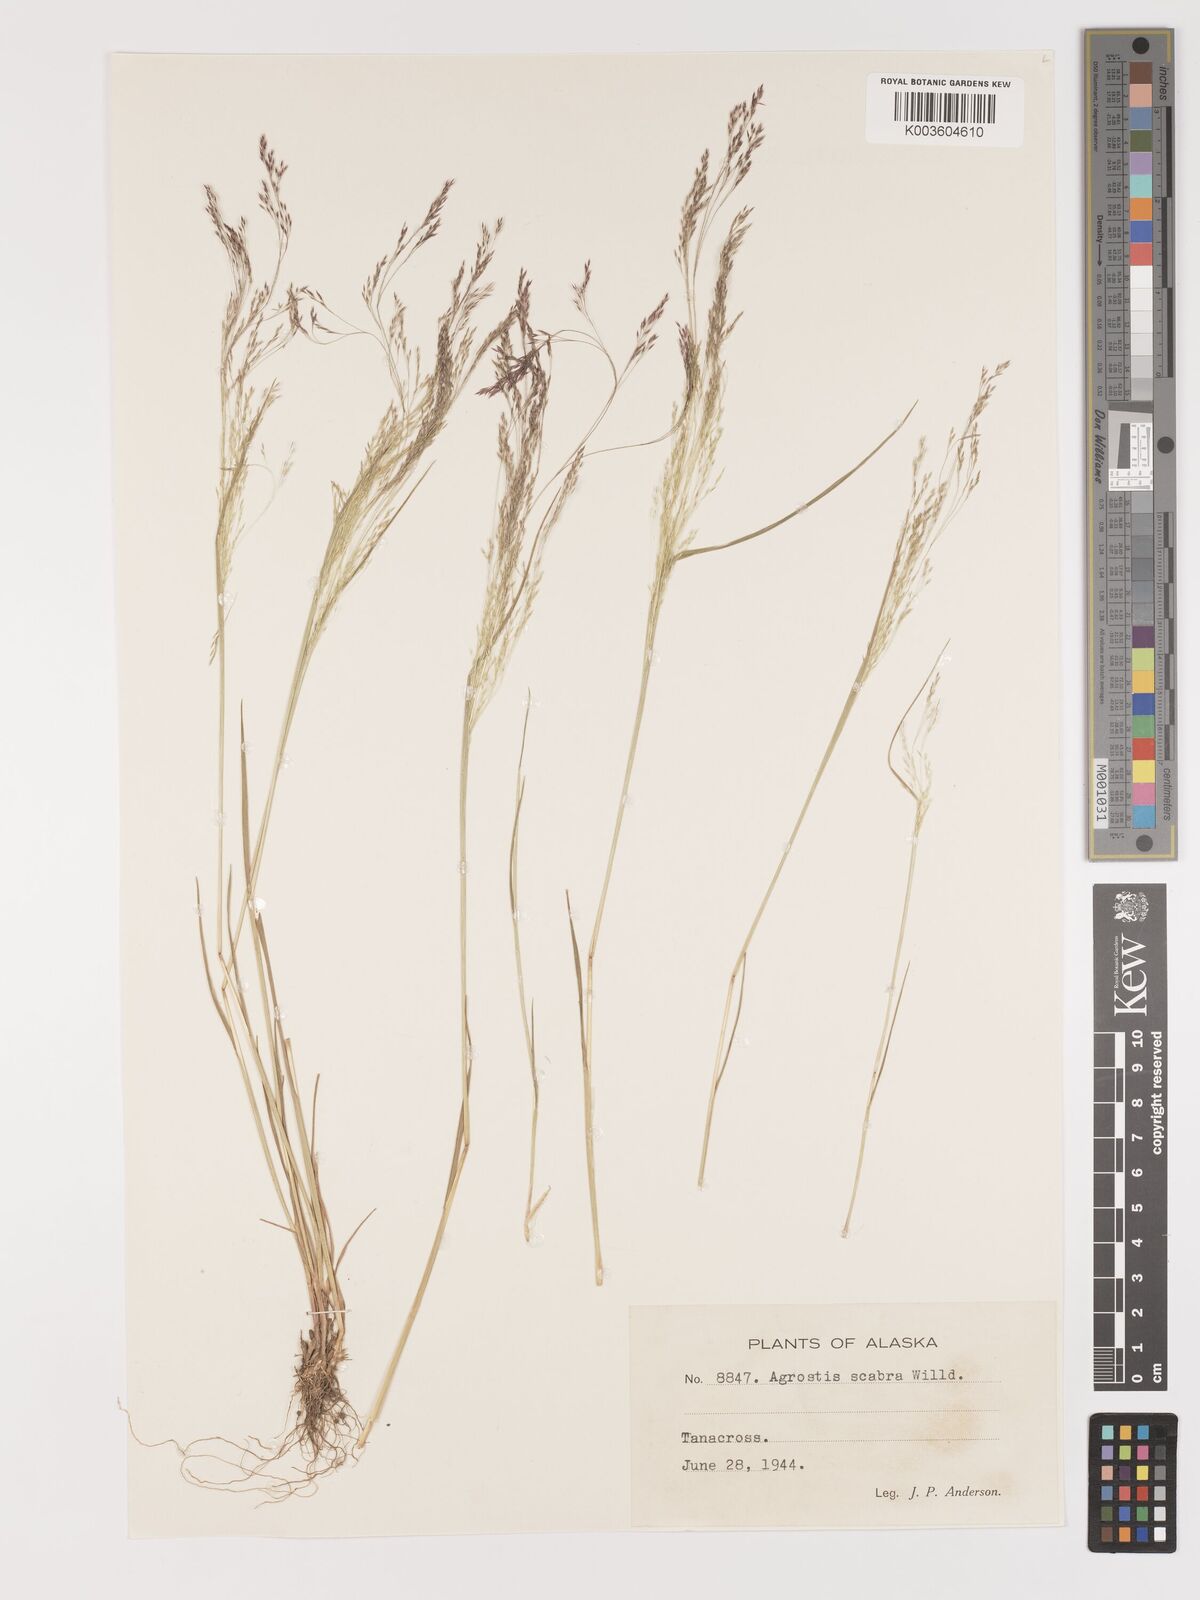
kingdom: Plantae
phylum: Tracheophyta
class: Liliopsida
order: Poales
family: Poaceae
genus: Agrostis
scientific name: Agrostis
